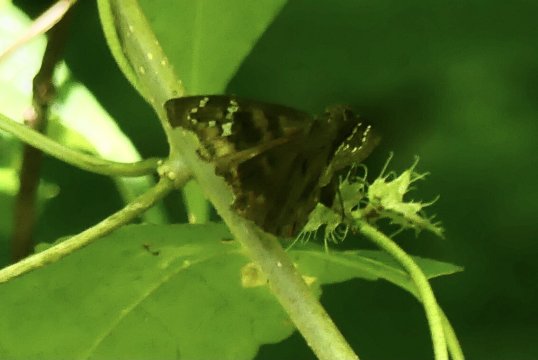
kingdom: Animalia
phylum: Arthropoda
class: Insecta
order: Lepidoptera
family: Hesperiidae
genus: Ephyriades
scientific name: Ephyriades zephodes
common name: Zephodes Duskywing
